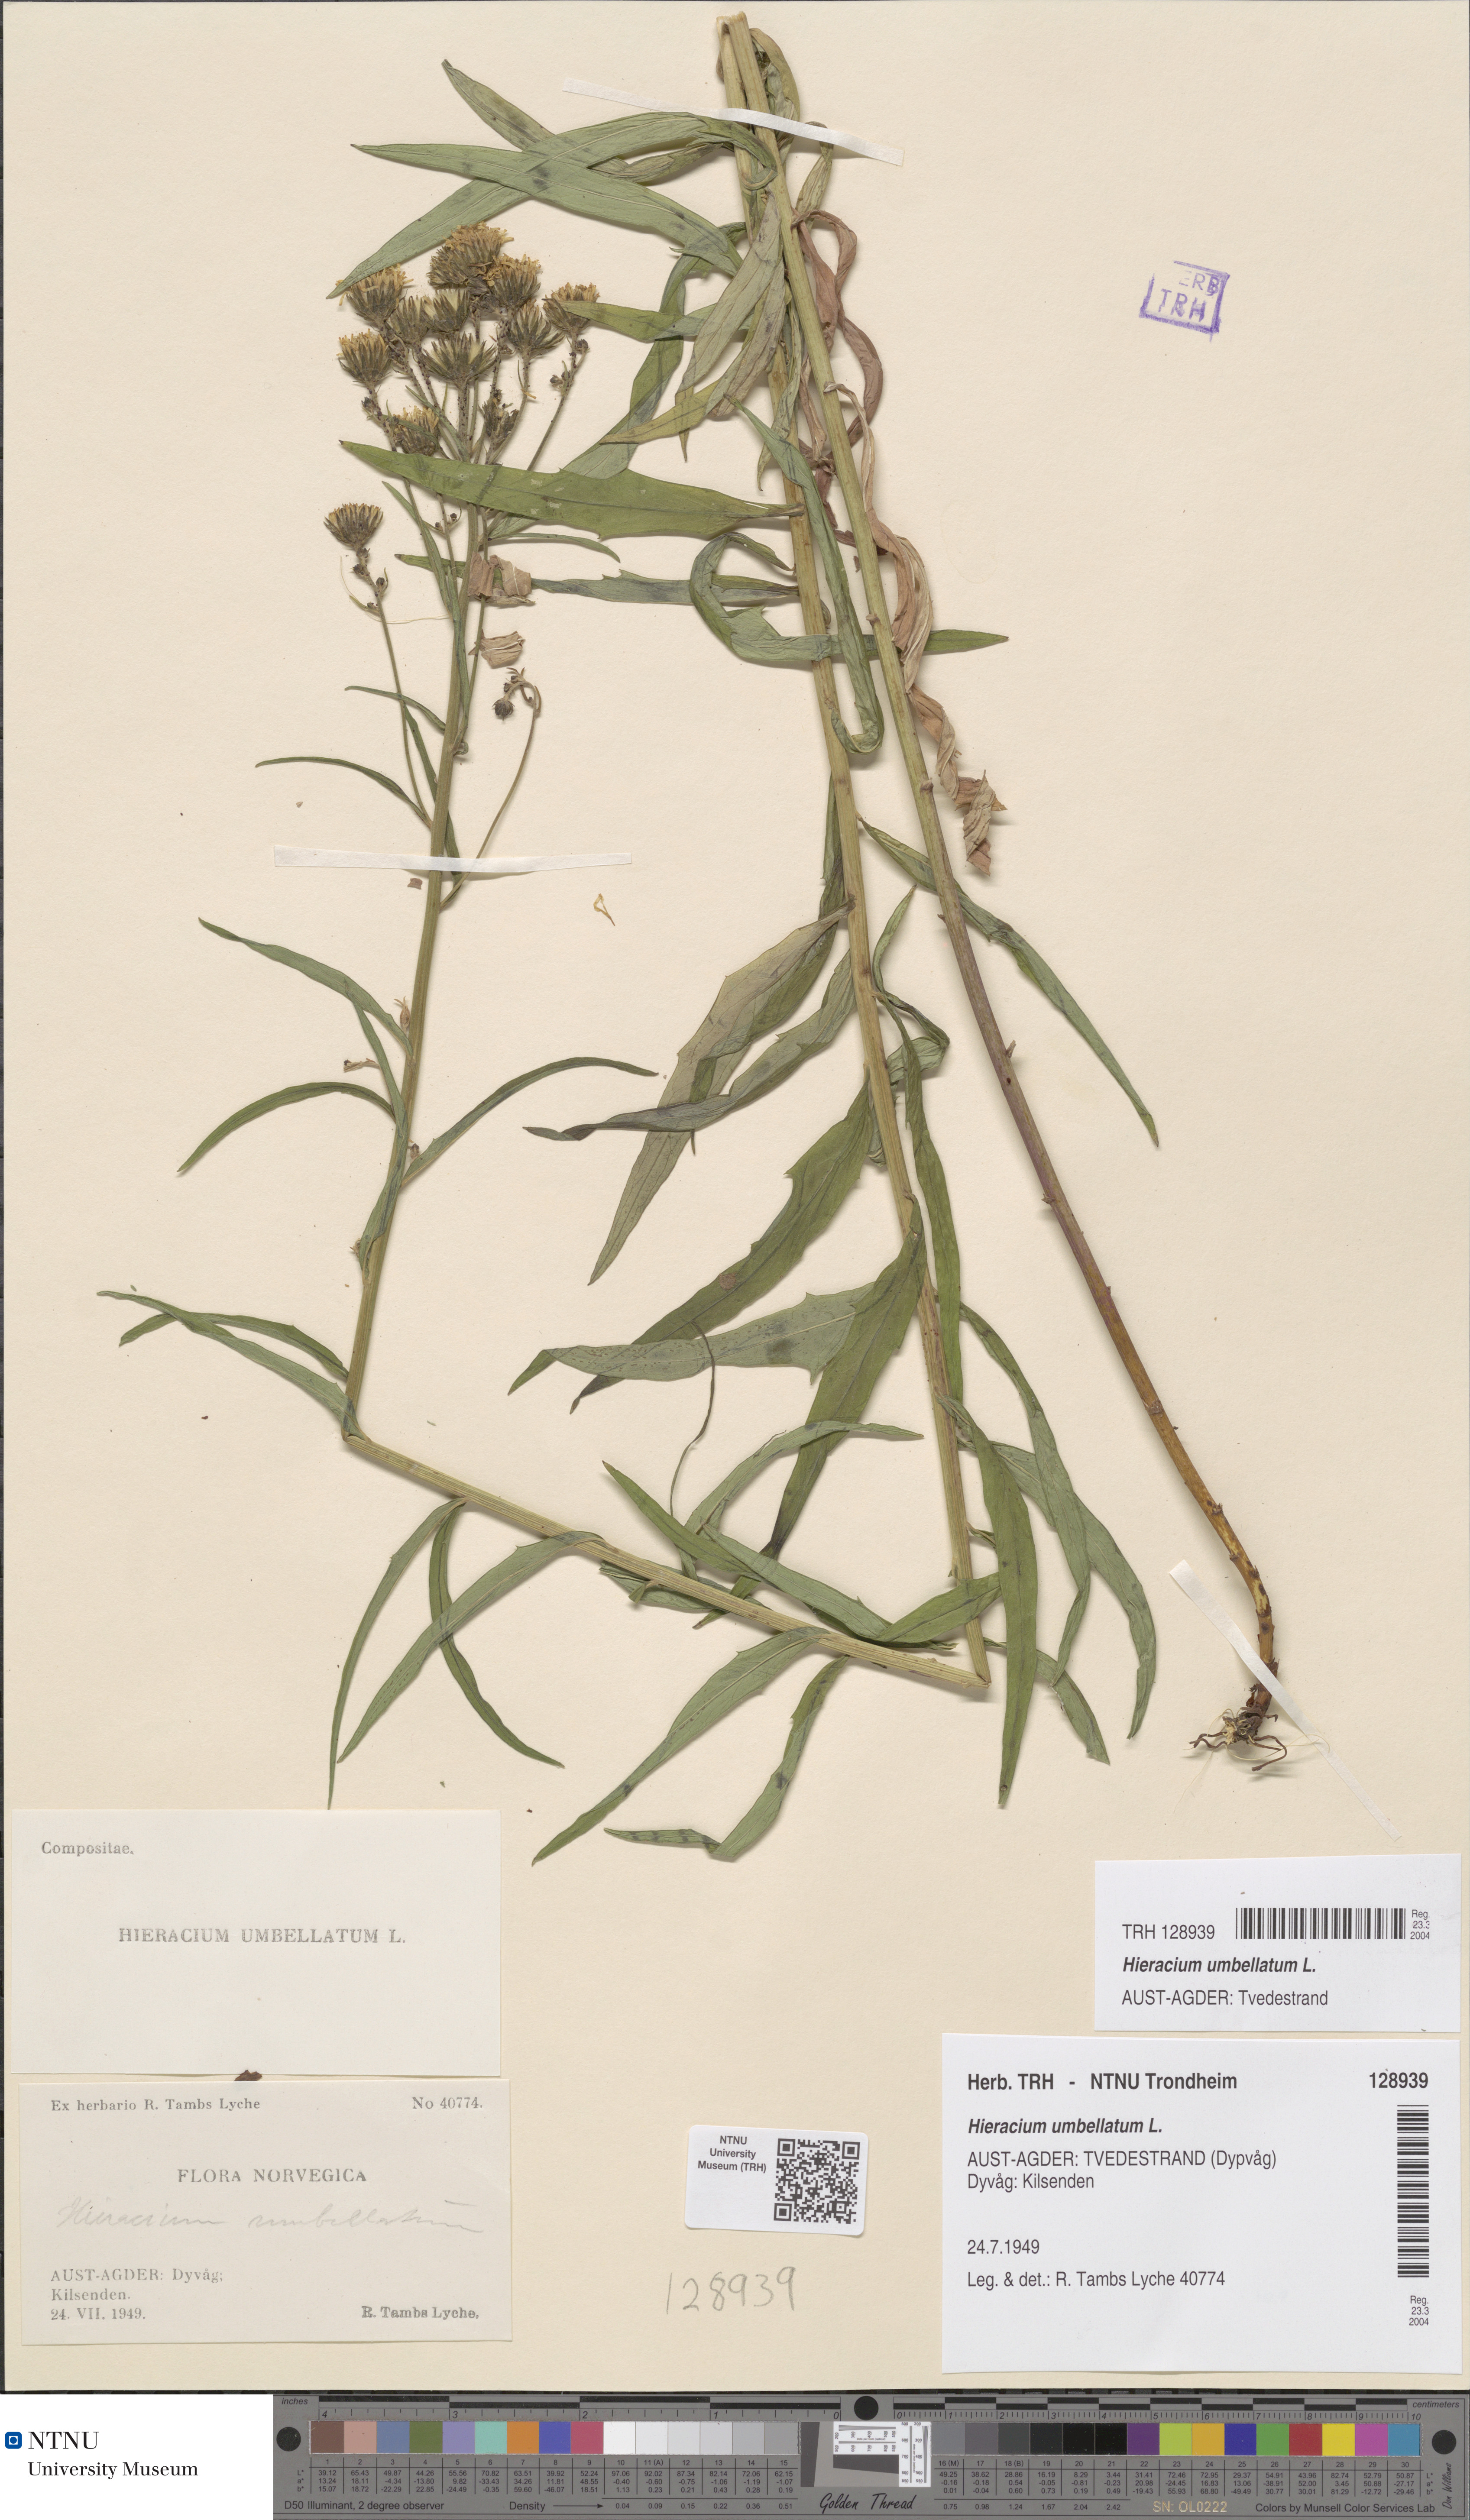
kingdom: Plantae
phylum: Tracheophyta
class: Magnoliopsida
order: Asterales
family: Asteraceae
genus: Hieracium
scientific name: Hieracium umbellatum
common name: Northern hawkweed
